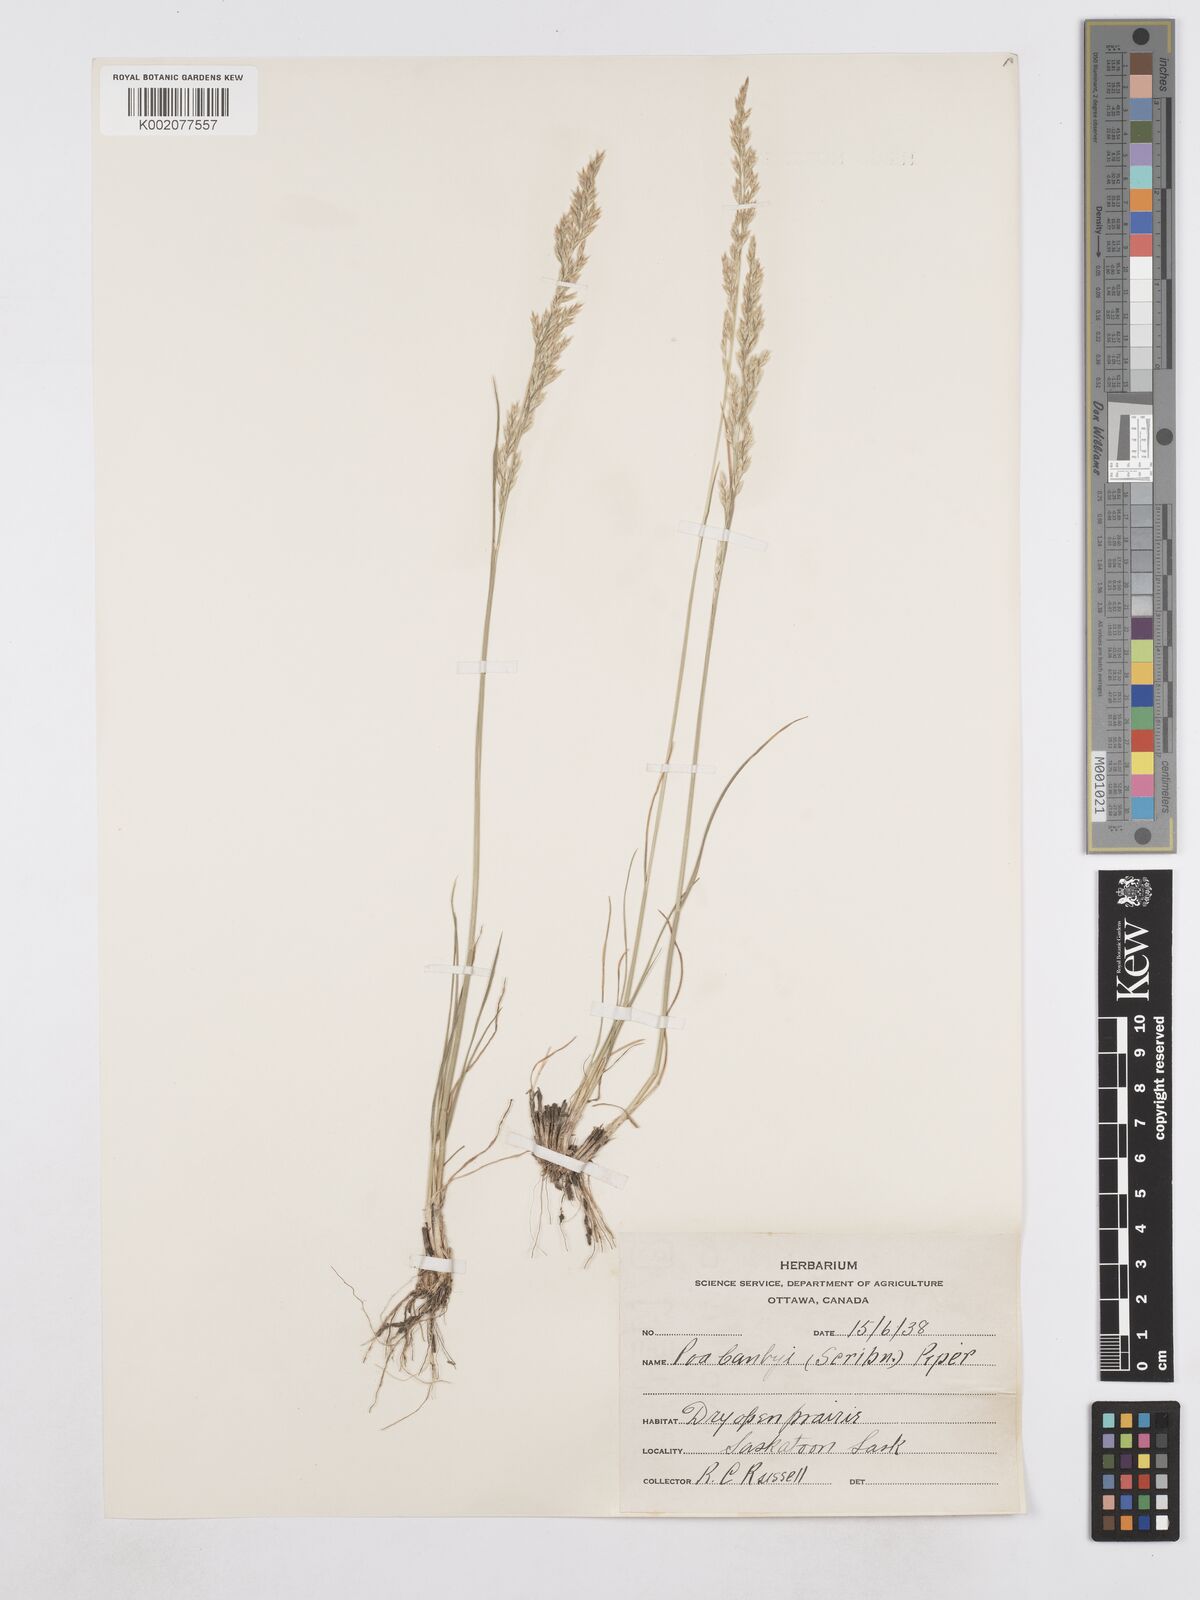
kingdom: Plantae
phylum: Tracheophyta
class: Liliopsida
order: Poales
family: Poaceae
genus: Poa
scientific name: Poa secunda
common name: Sandberg bluegrass
